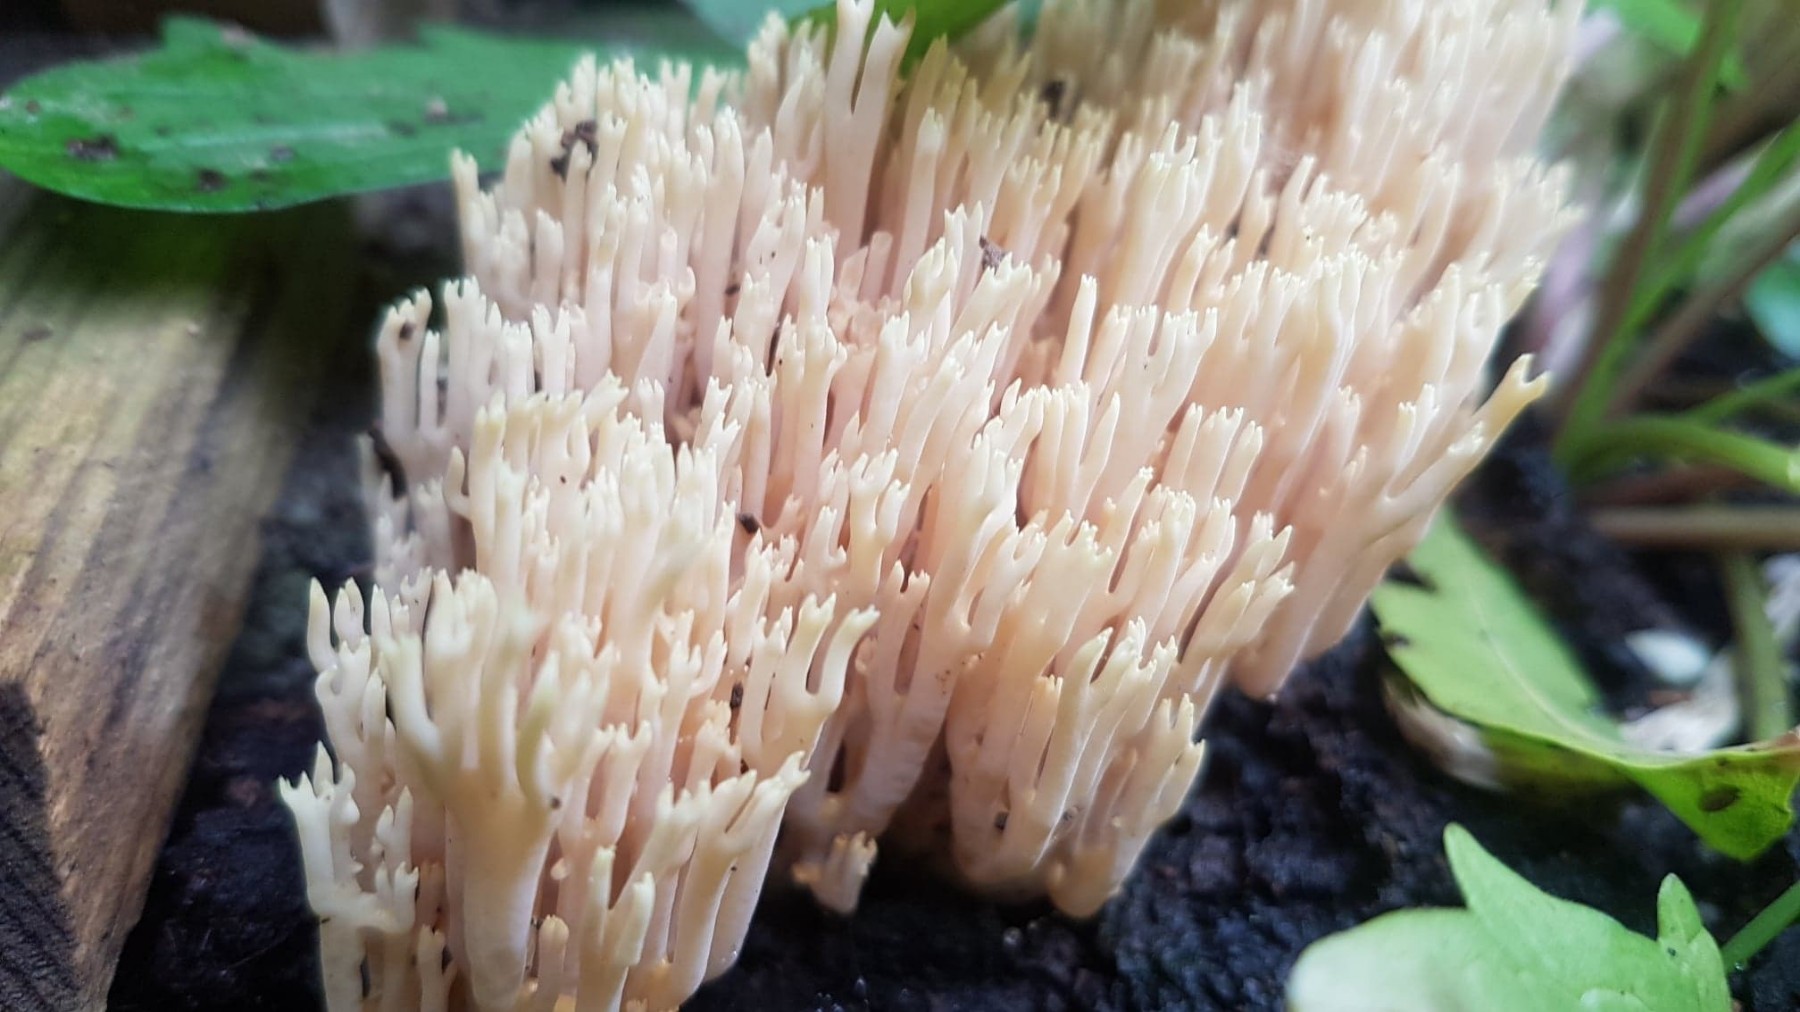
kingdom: Fungi
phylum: Basidiomycota
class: Agaricomycetes
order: Gomphales
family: Gomphaceae
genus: Ramaria
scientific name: Ramaria stricta
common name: rank koralsvamp
